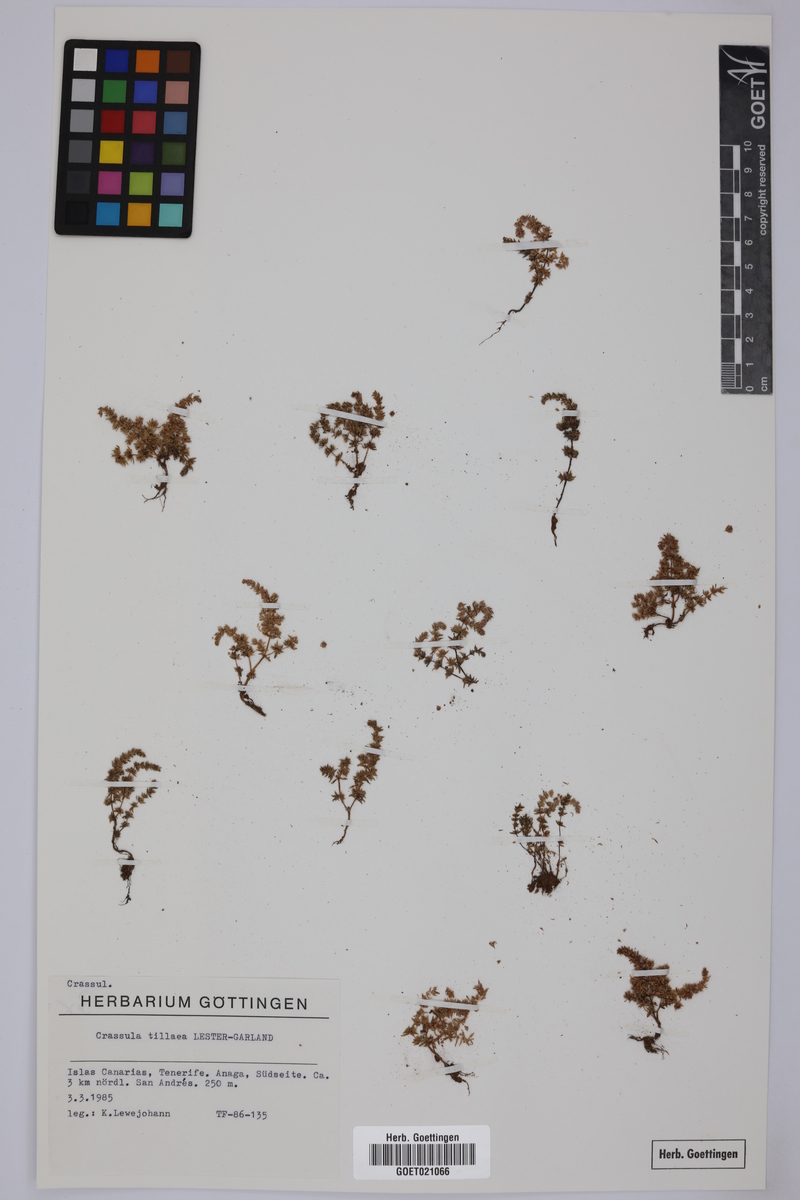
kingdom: Plantae
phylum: Tracheophyta
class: Magnoliopsida
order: Saxifragales
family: Crassulaceae
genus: Crassula
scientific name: Crassula tillaea
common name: Mossy stonecrop
